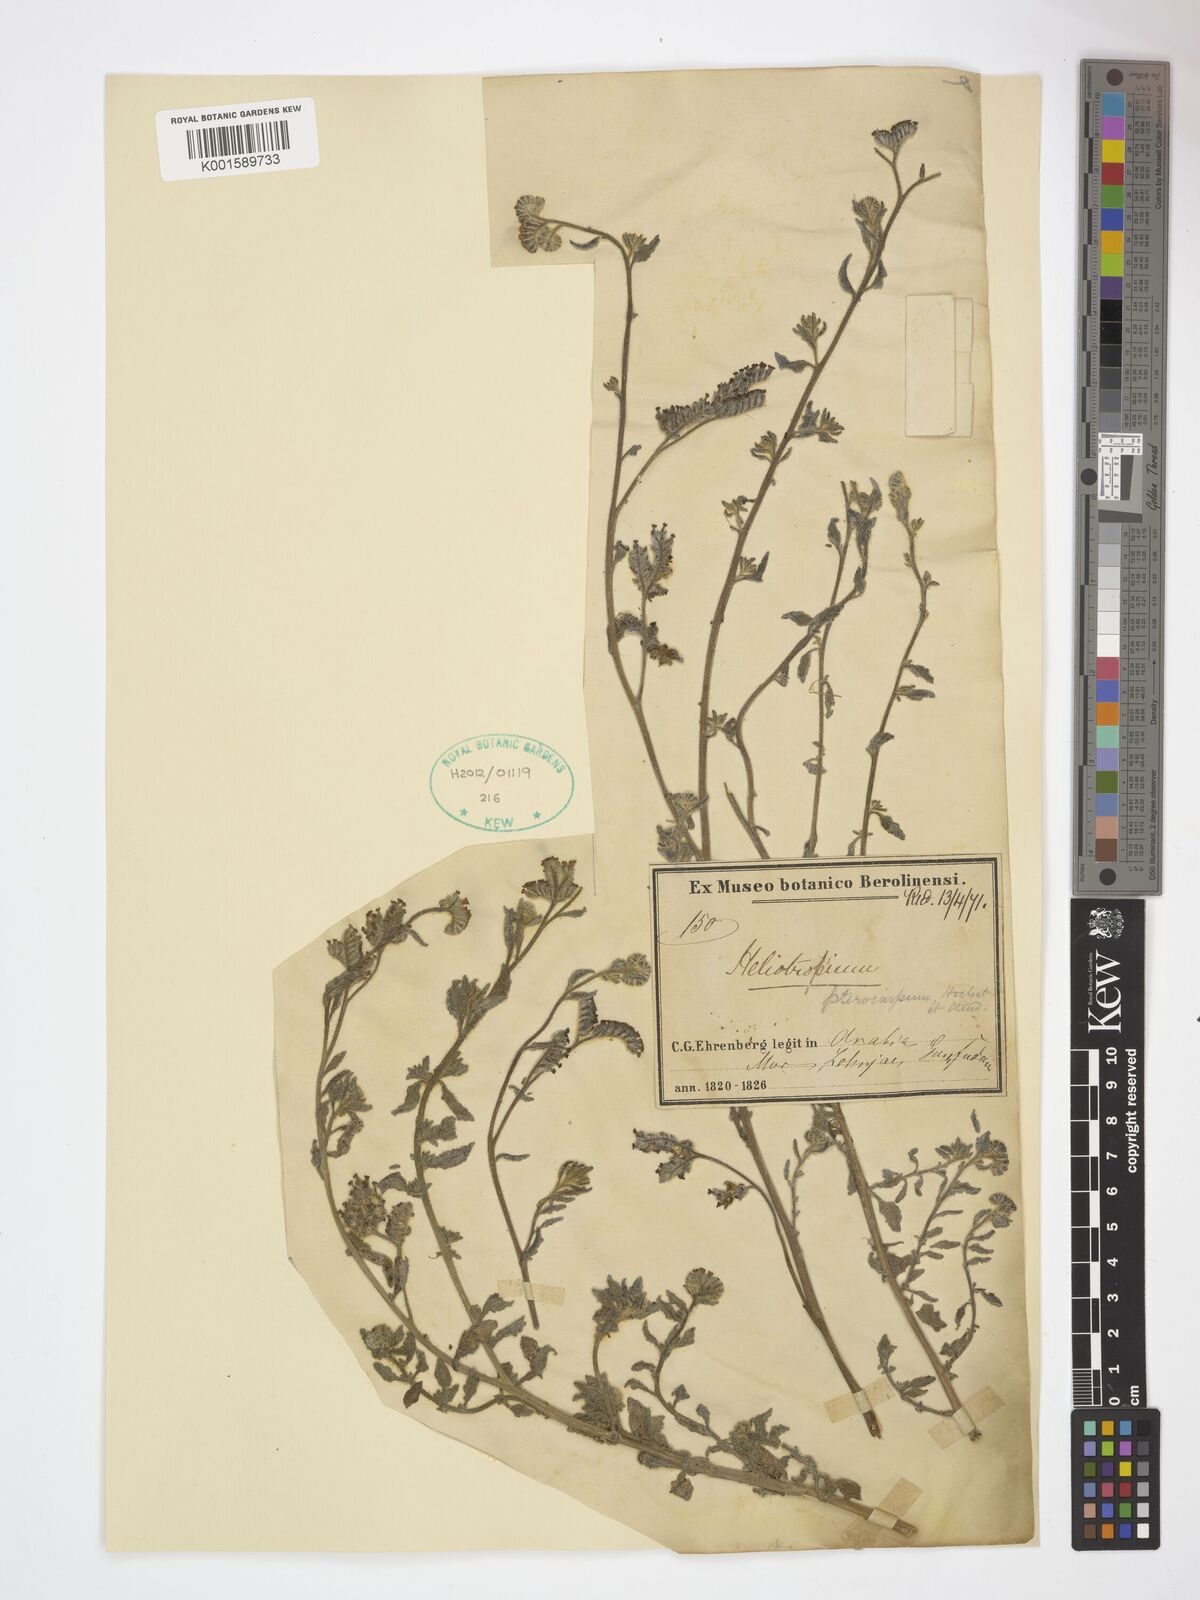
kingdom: Plantae
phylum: Tracheophyta
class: Magnoliopsida
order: Boraginales
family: Heliotropiaceae
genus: Heliotropium
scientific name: Heliotropium pterocarpum
